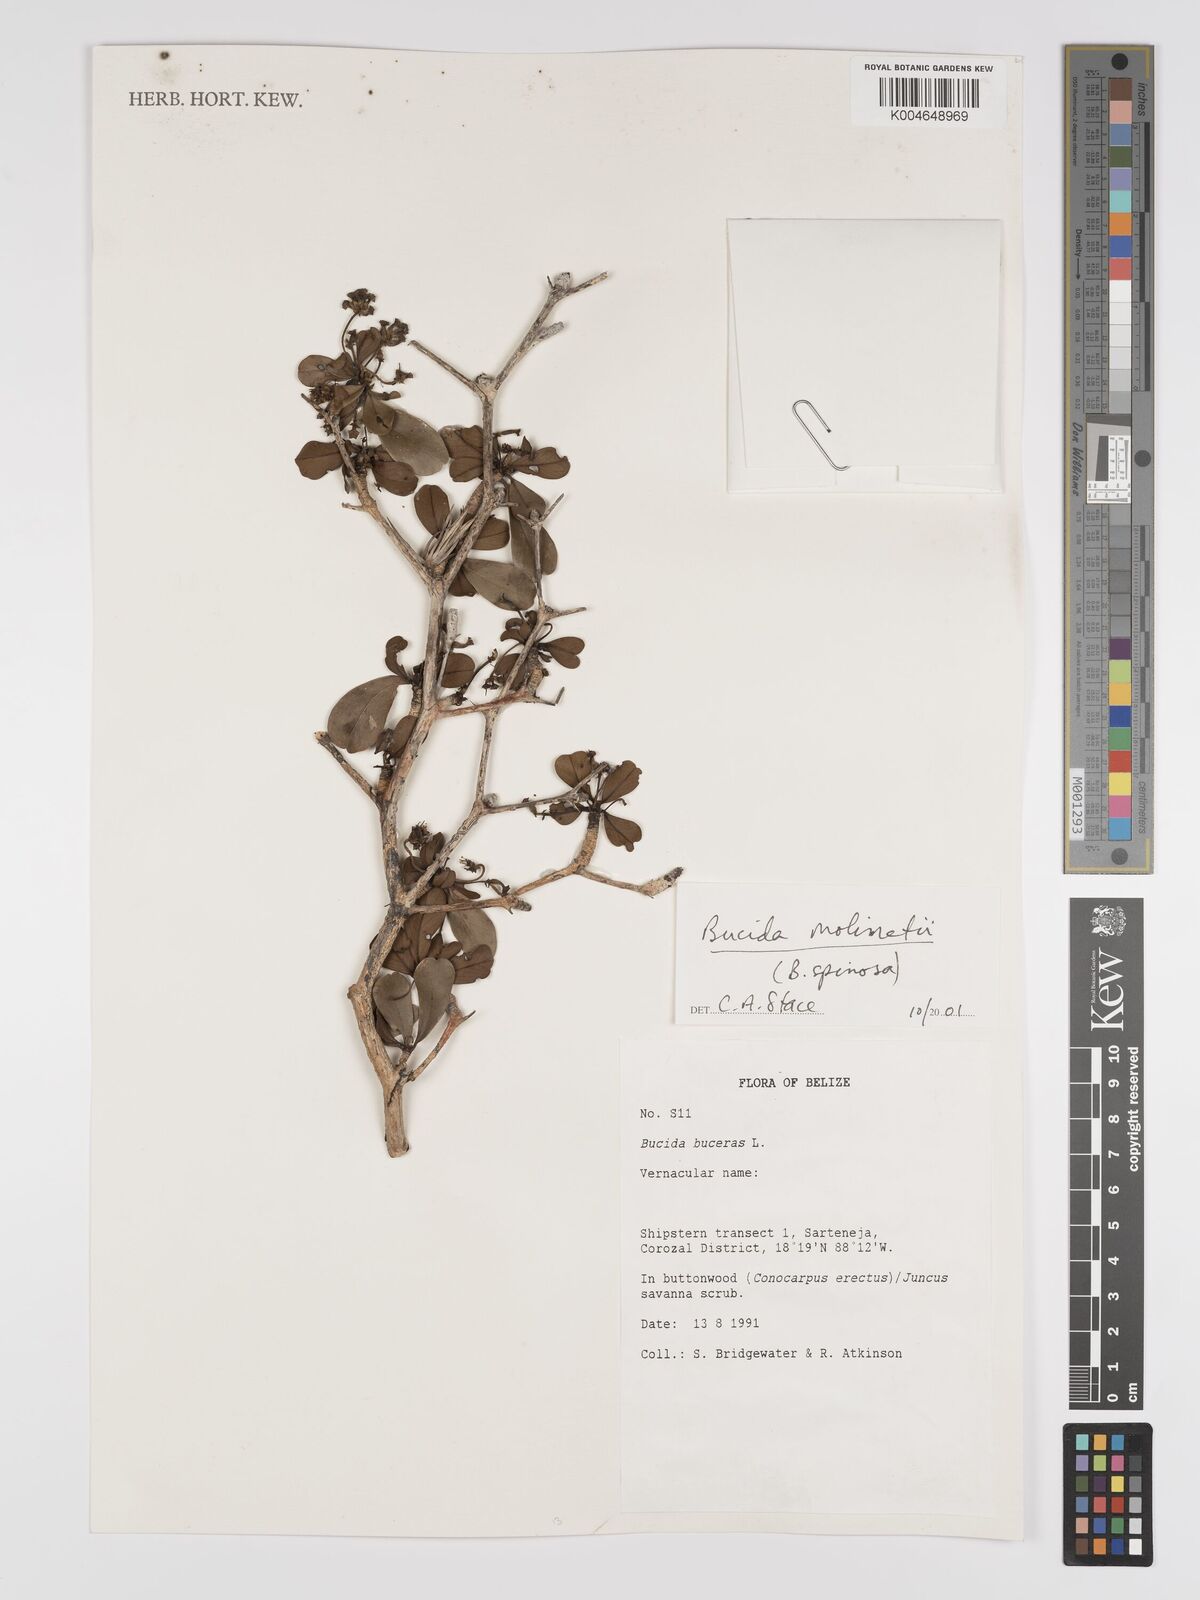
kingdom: Plantae
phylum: Tracheophyta
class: Magnoliopsida
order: Myrtales
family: Combretaceae
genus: Terminalia
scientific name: Terminalia molinetii
